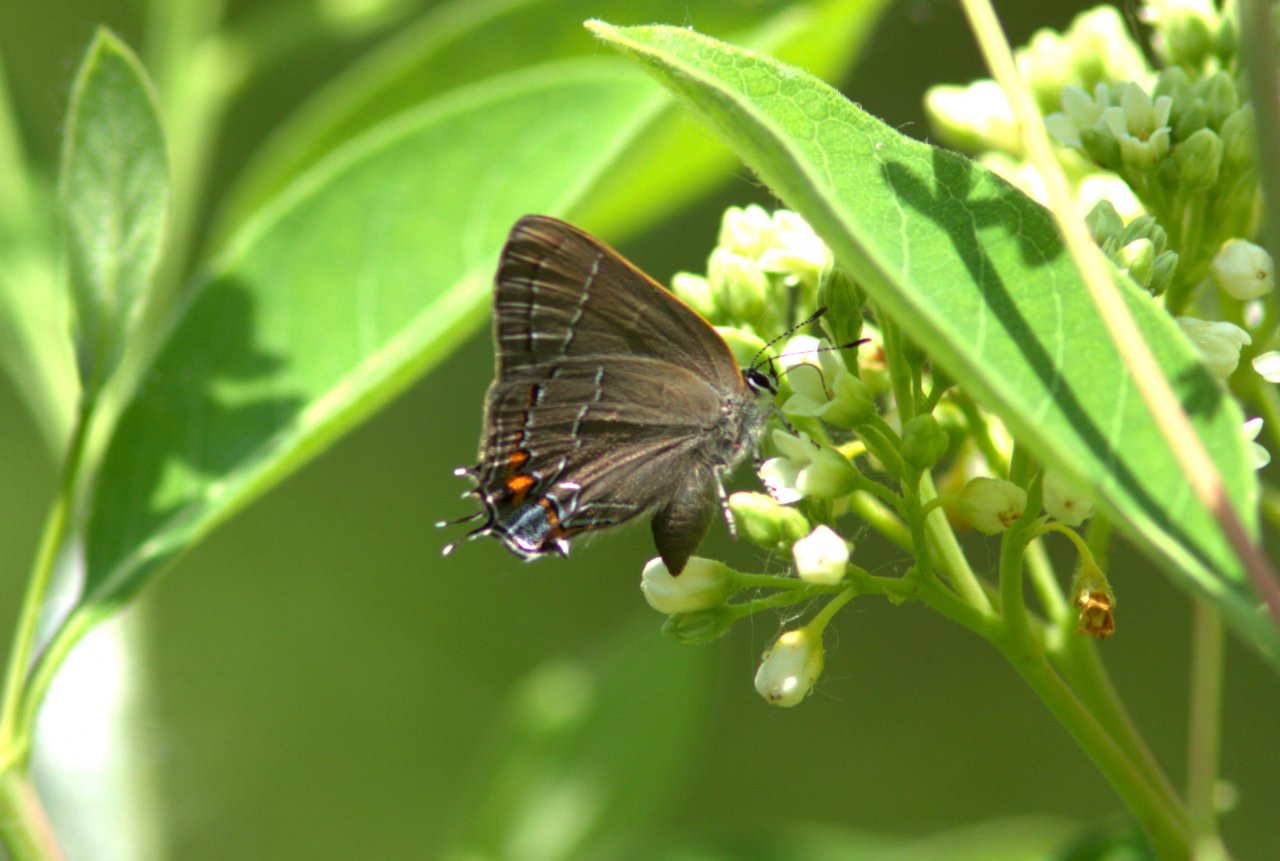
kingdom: Animalia
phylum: Arthropoda
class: Insecta
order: Lepidoptera
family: Lycaenidae
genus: Fixsenia
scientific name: Fixsenia favonius
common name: Oak Hairstreak
